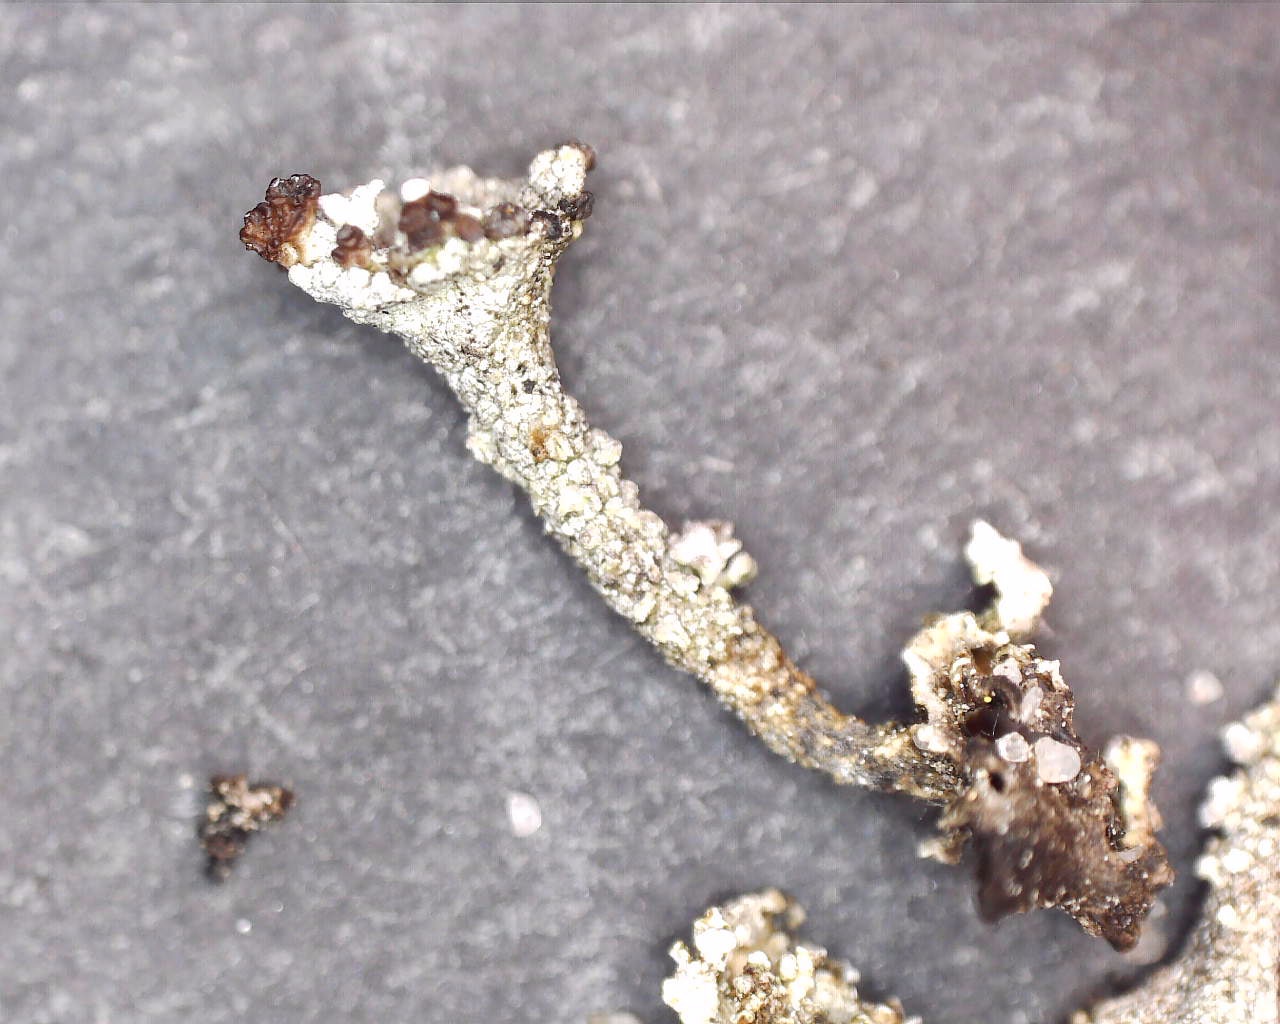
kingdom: Fungi
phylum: Ascomycota
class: Lecanoromycetes
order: Lecanorales
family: Cladoniaceae
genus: Cladonia
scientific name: Cladonia phyllophora
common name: sortfodet bægerlav
